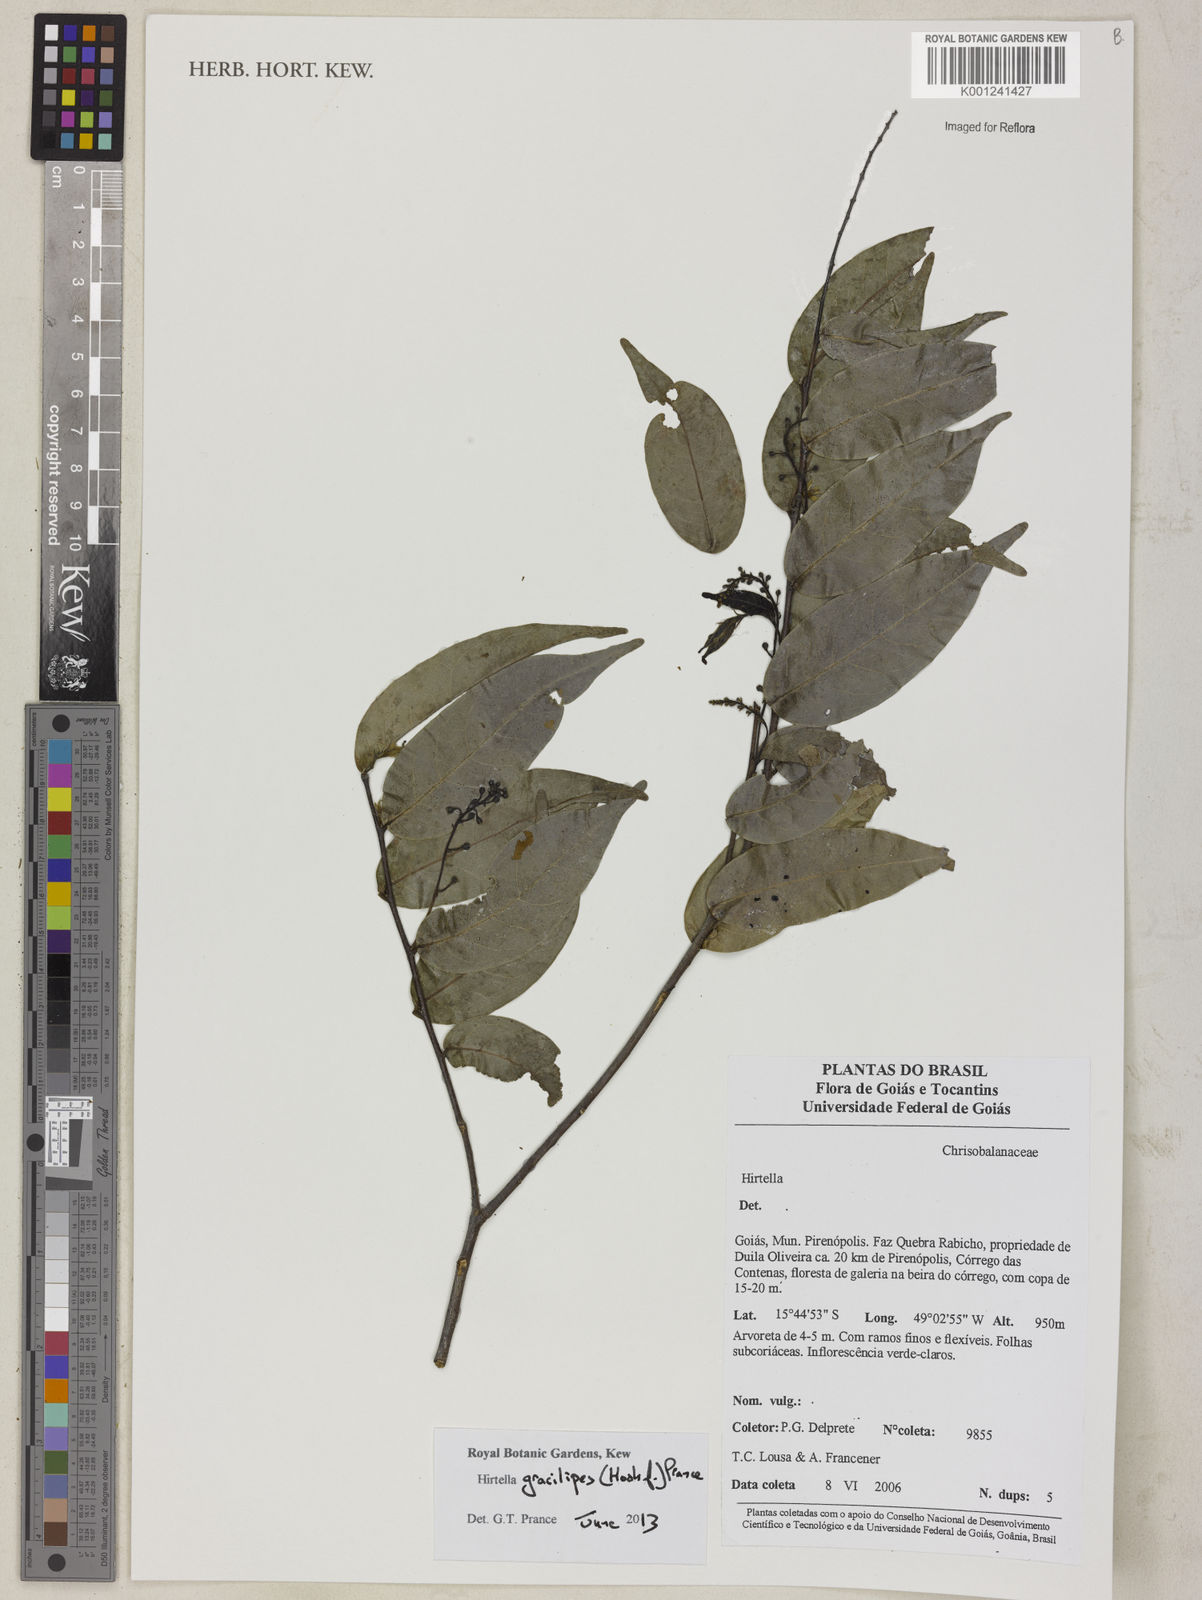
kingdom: Plantae
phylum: Tracheophyta
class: Magnoliopsida
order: Malpighiales
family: Chrysobalanaceae
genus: Hirtella
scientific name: Hirtella gracilipes
